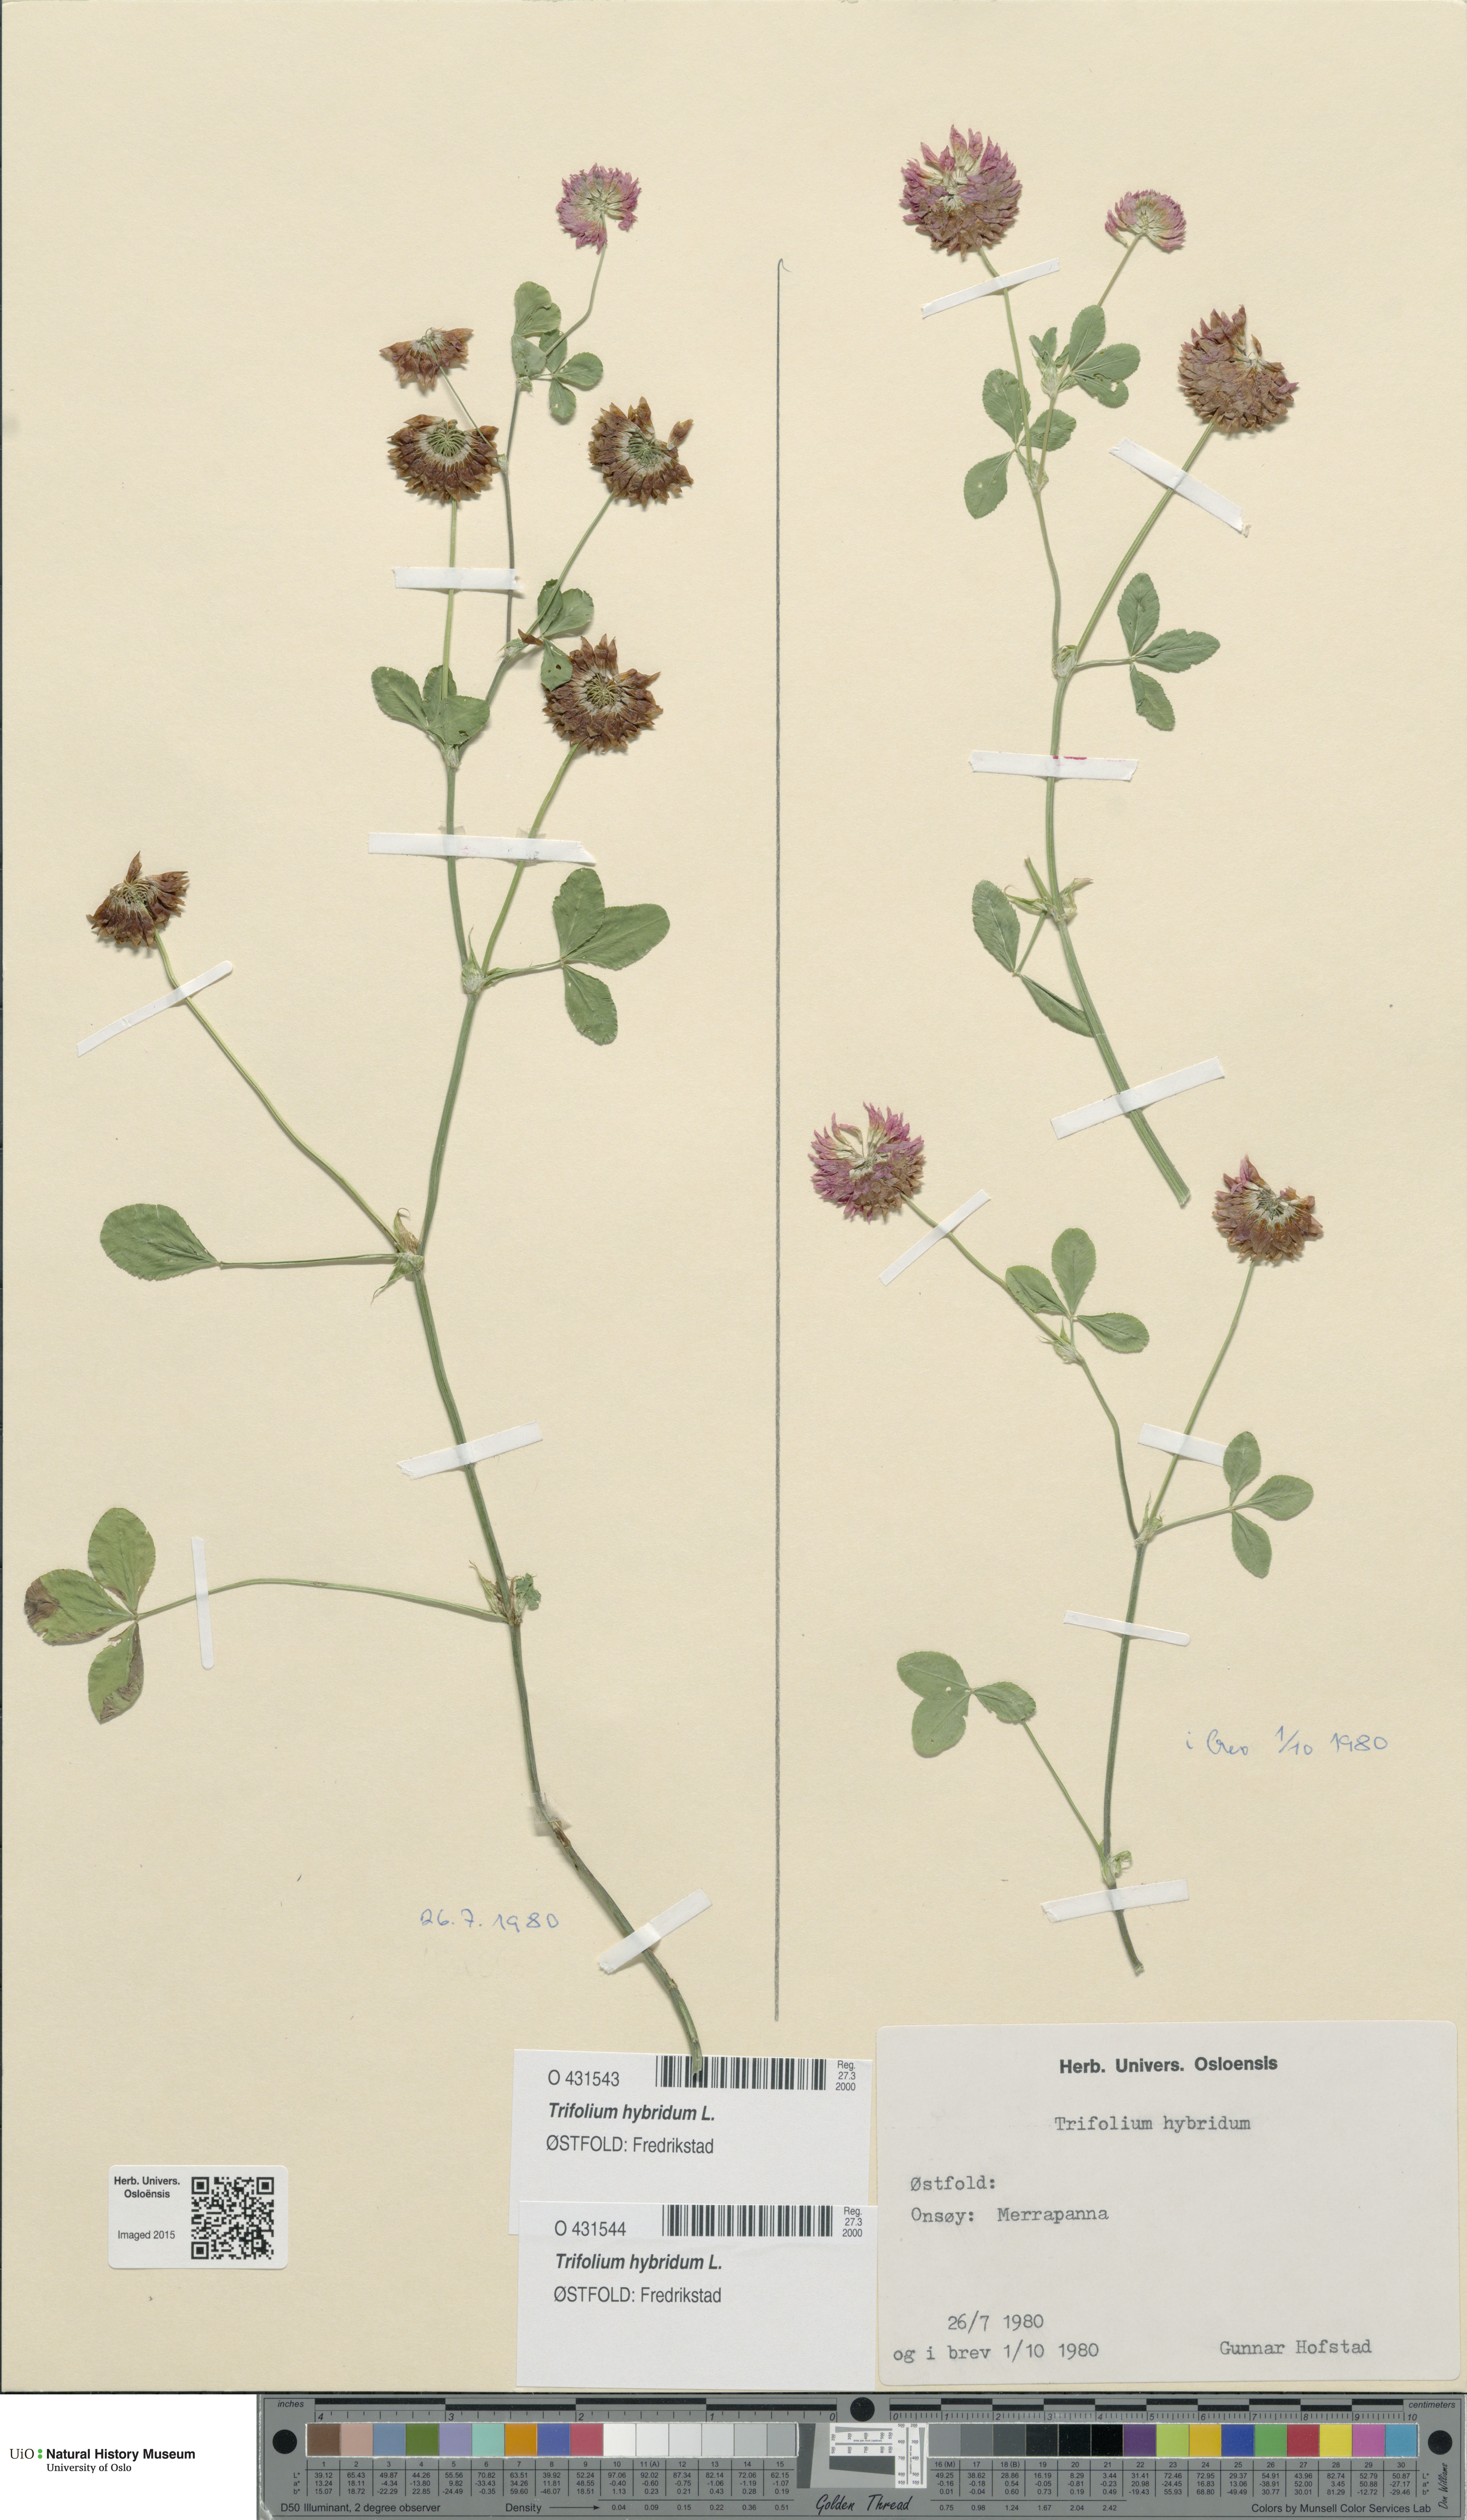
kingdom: Plantae
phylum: Tracheophyta
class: Magnoliopsida
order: Fabales
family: Fabaceae
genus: Trifolium
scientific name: Trifolium hybridum
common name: Alsike clover
